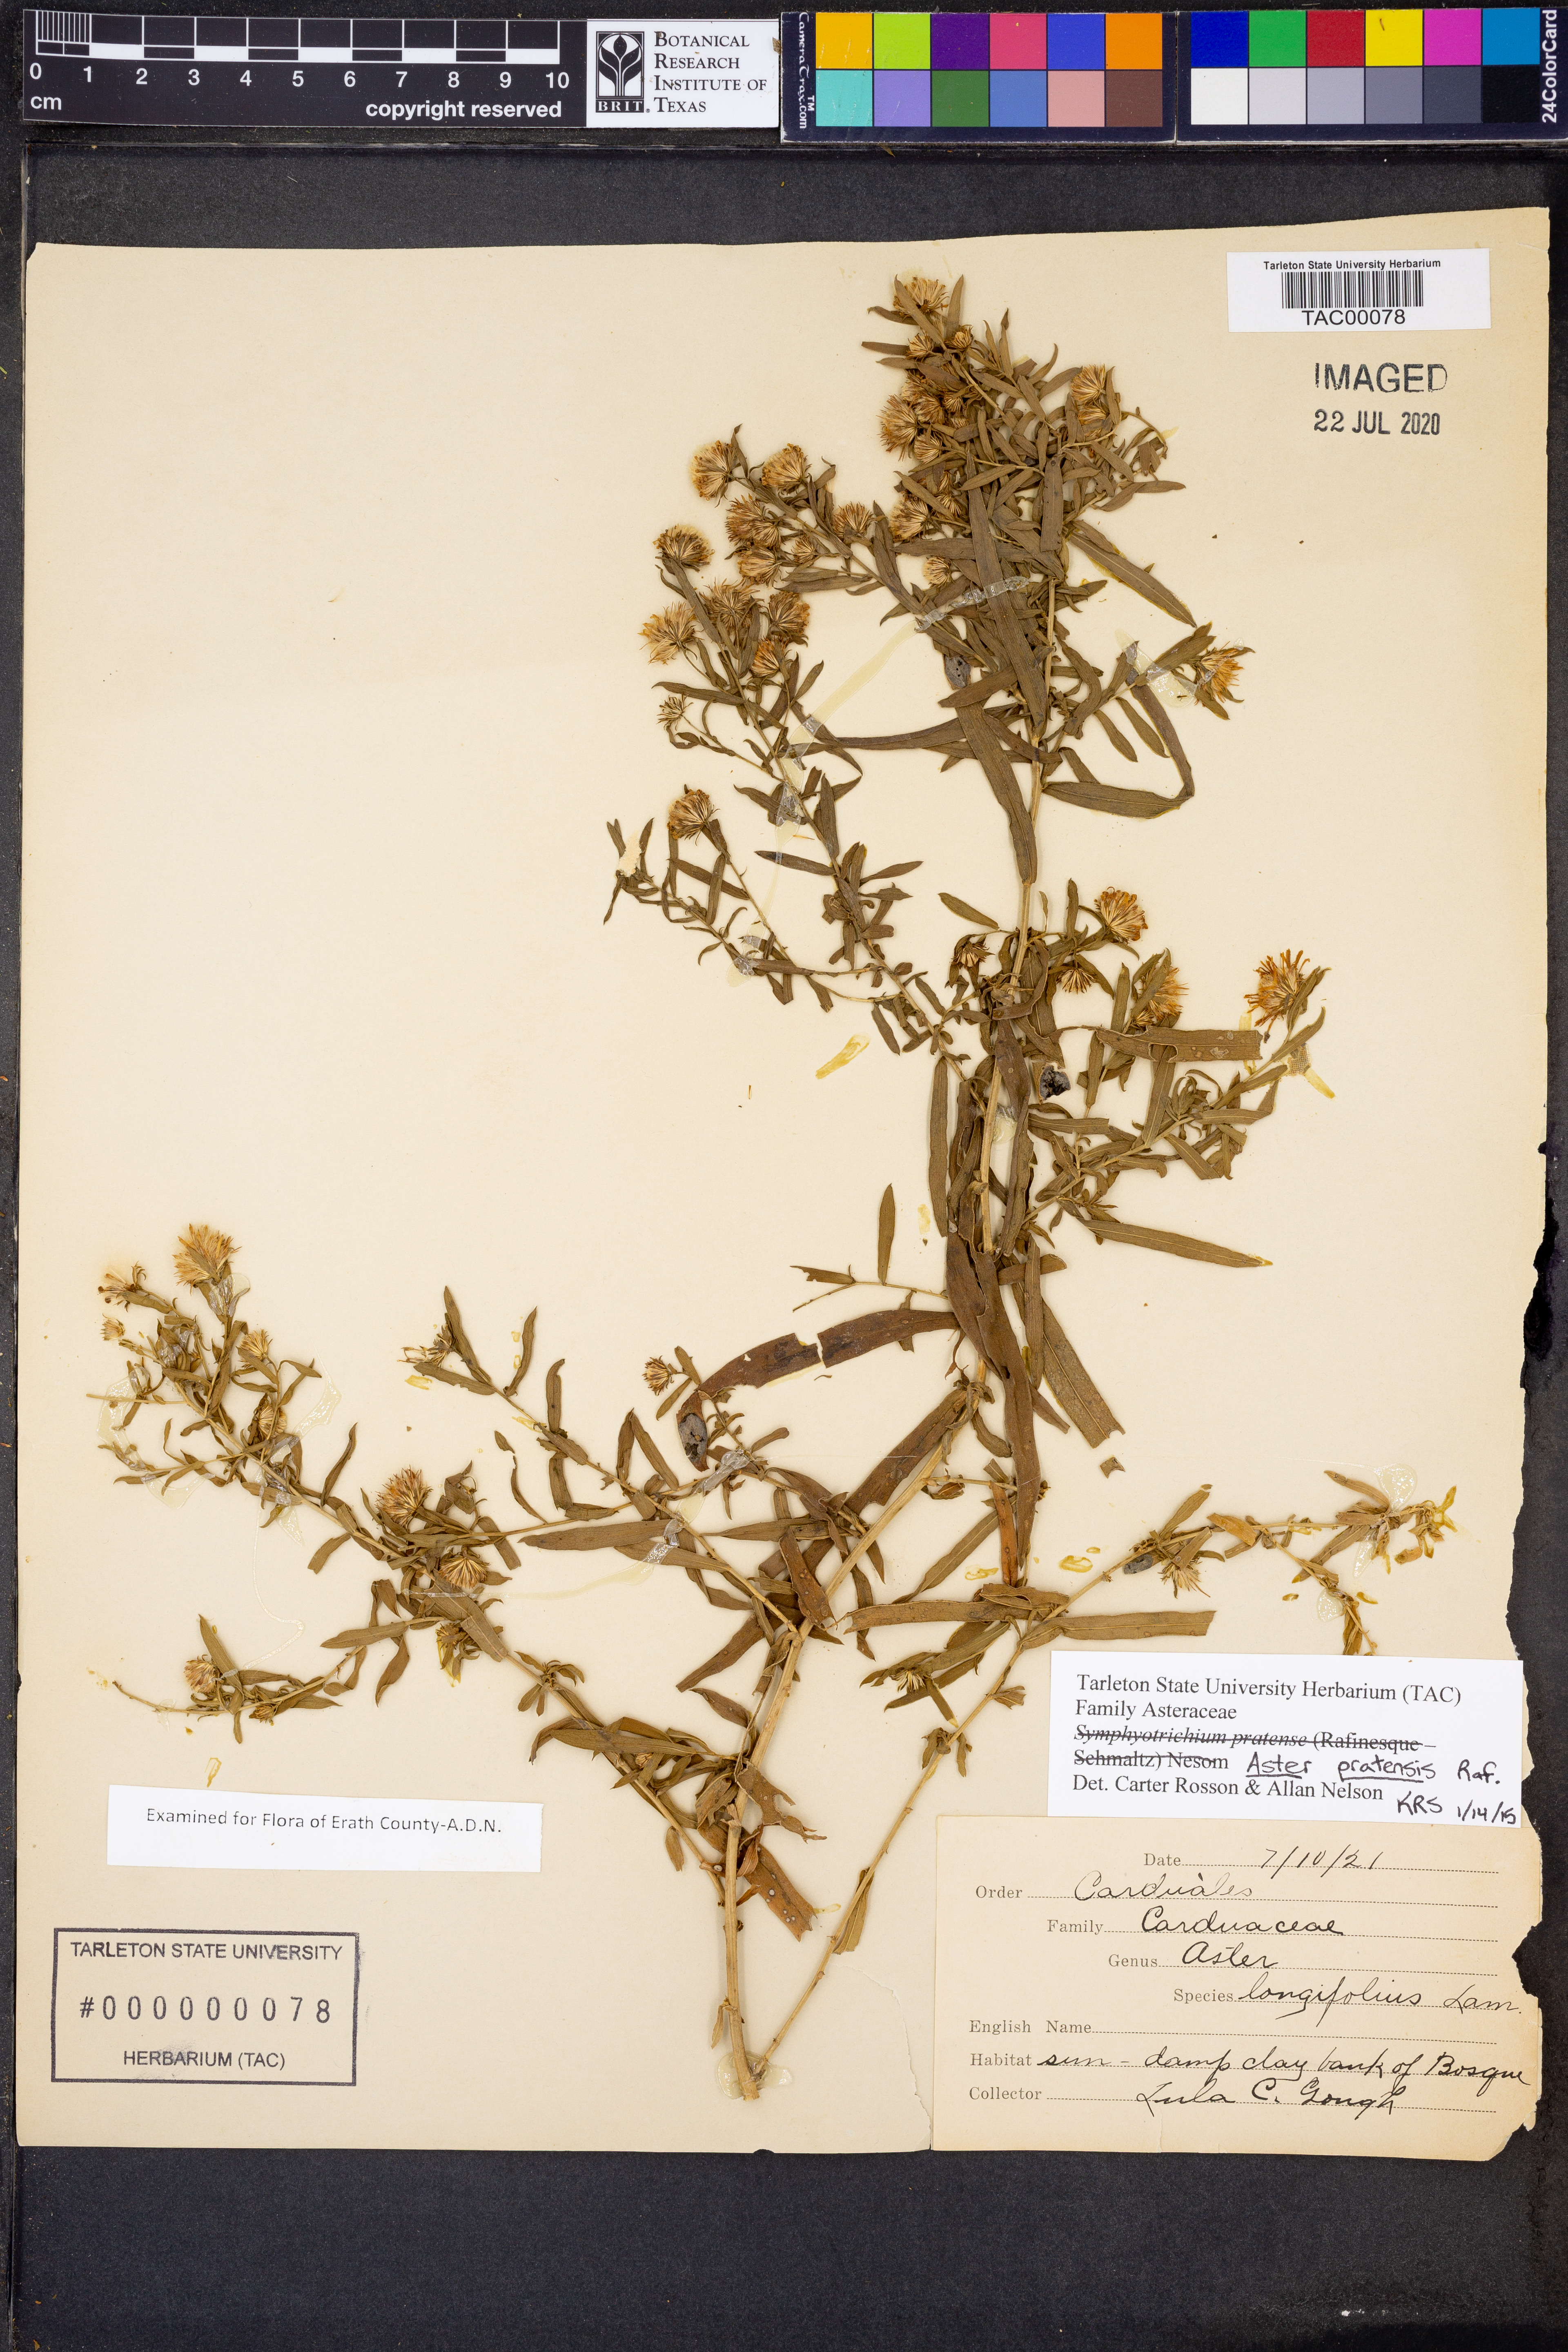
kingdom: Plantae
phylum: Tracheophyta
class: Magnoliopsida
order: Asterales
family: Asteraceae
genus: Symphyotrichum
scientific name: Symphyotrichum pratense
